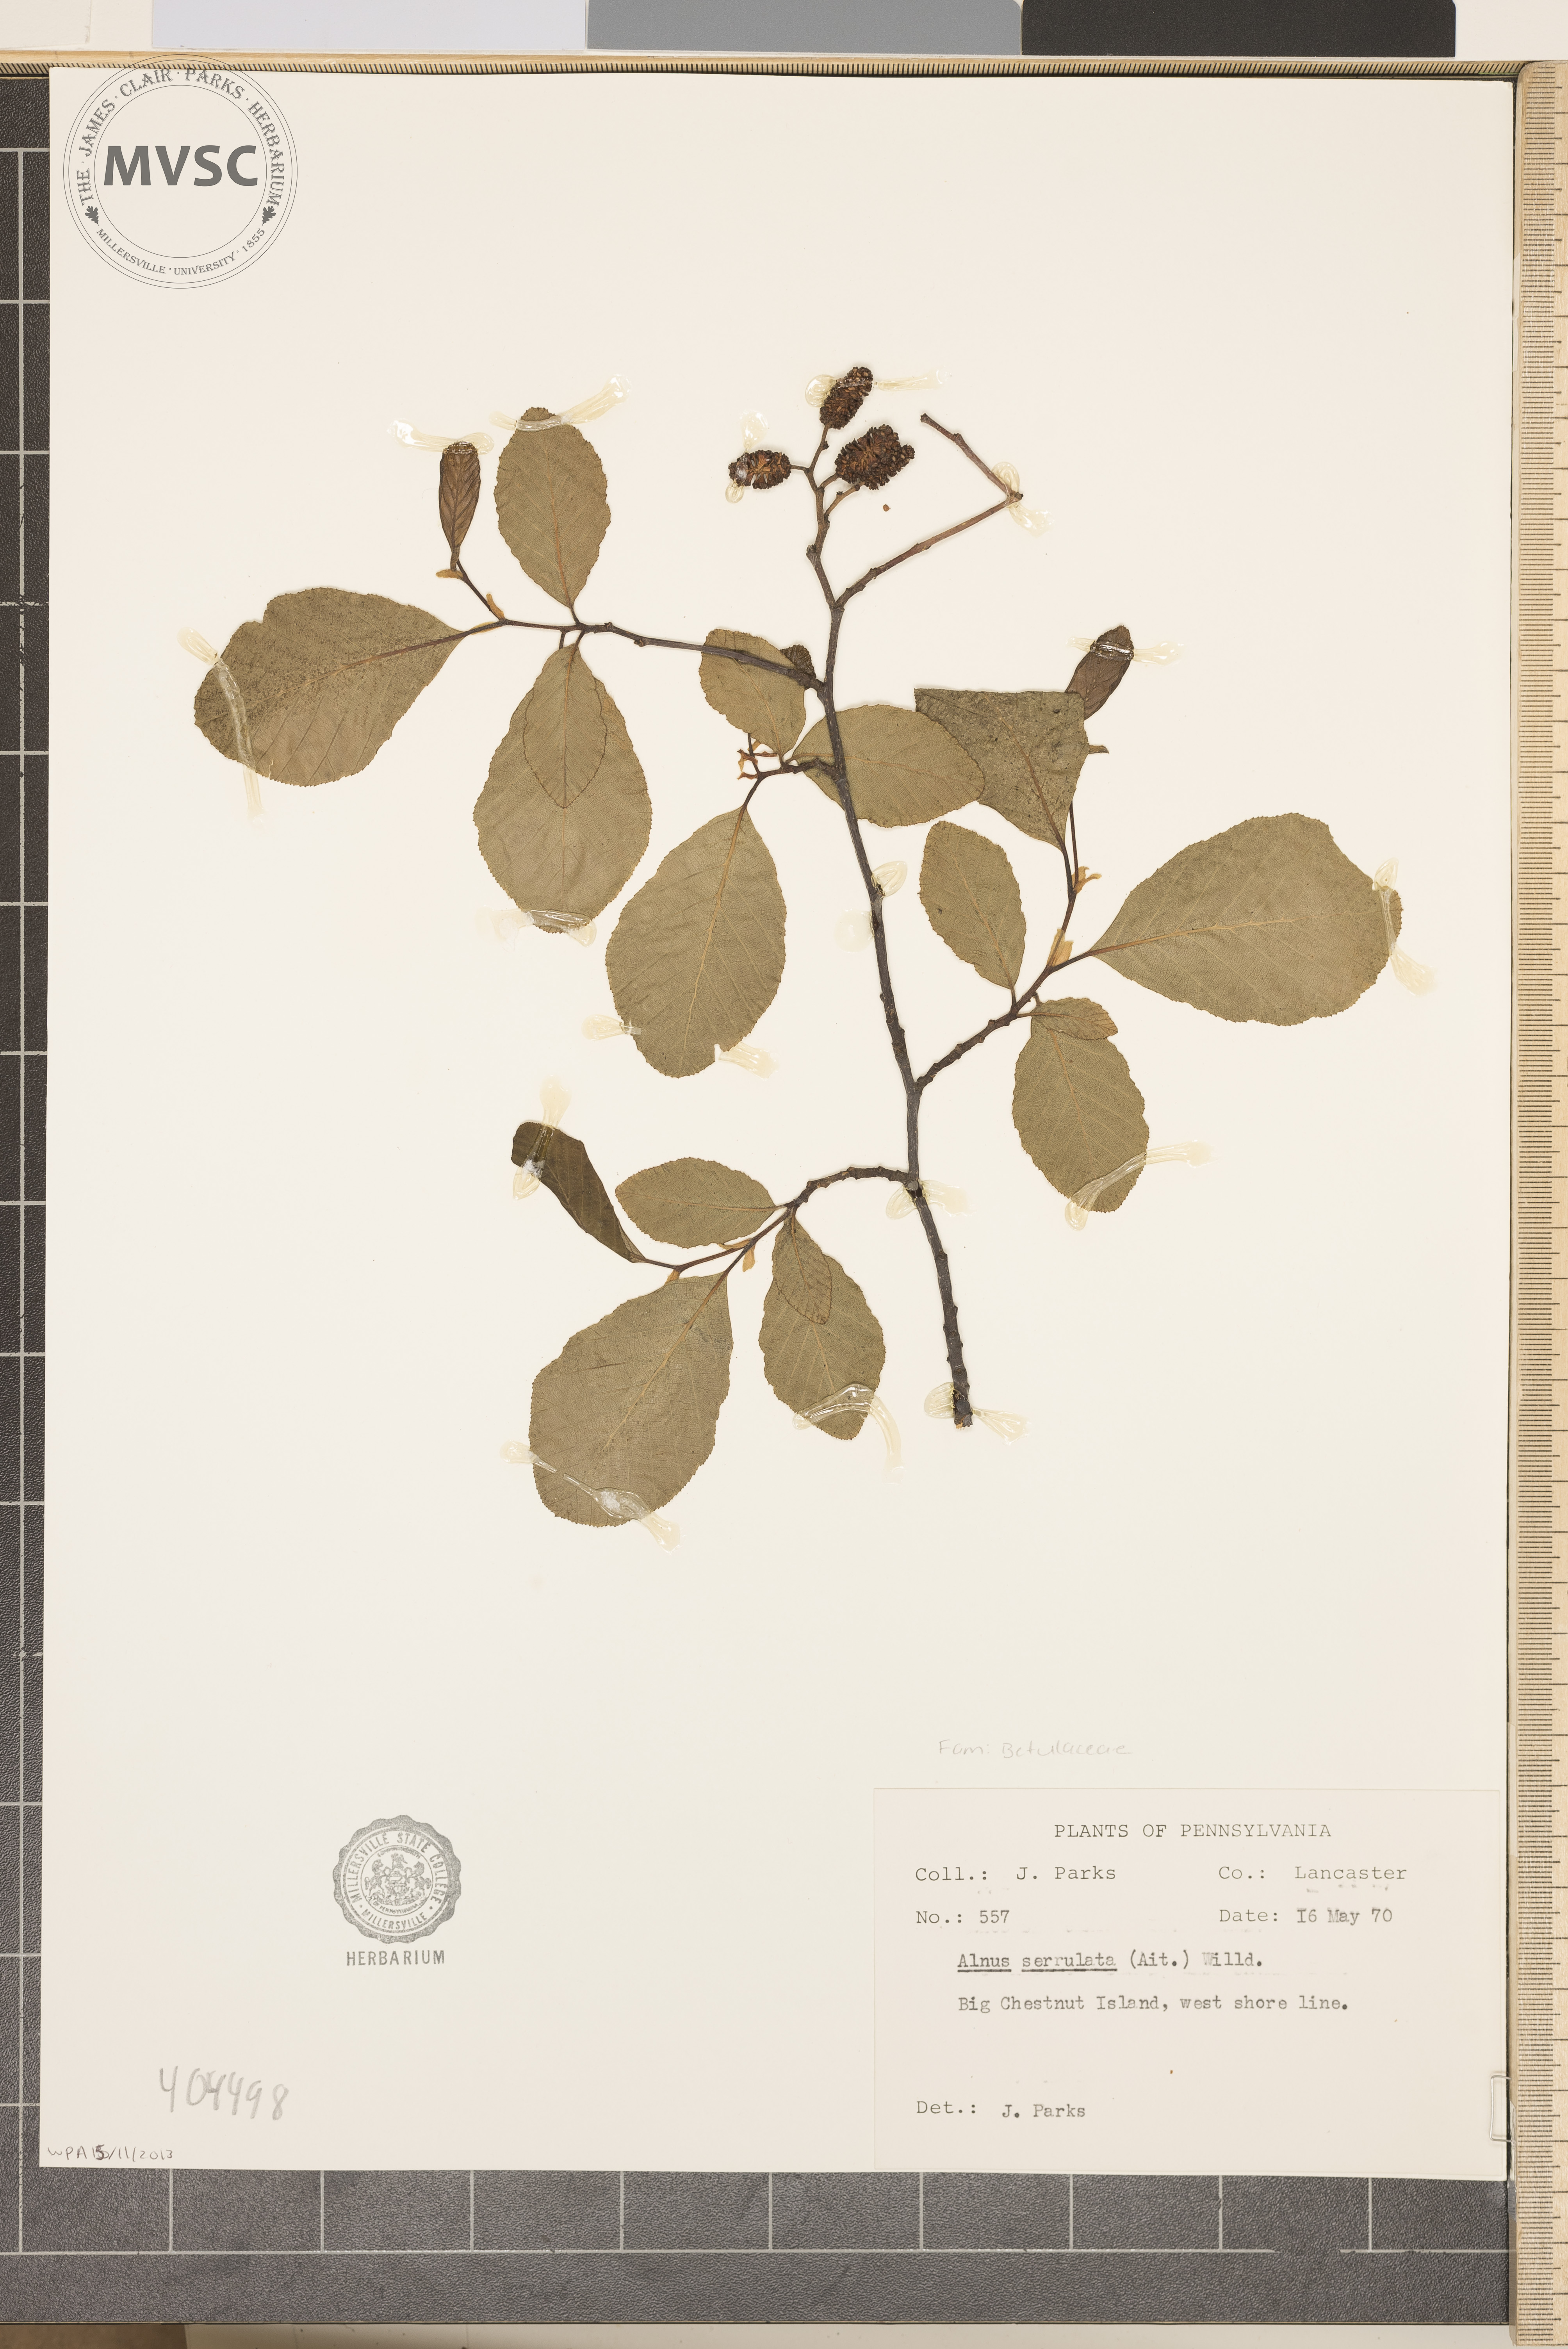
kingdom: Plantae
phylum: Tracheophyta
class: Magnoliopsida
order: Fagales
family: Betulaceae
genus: Alnus
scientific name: Alnus serrulata
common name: Hazel alder
